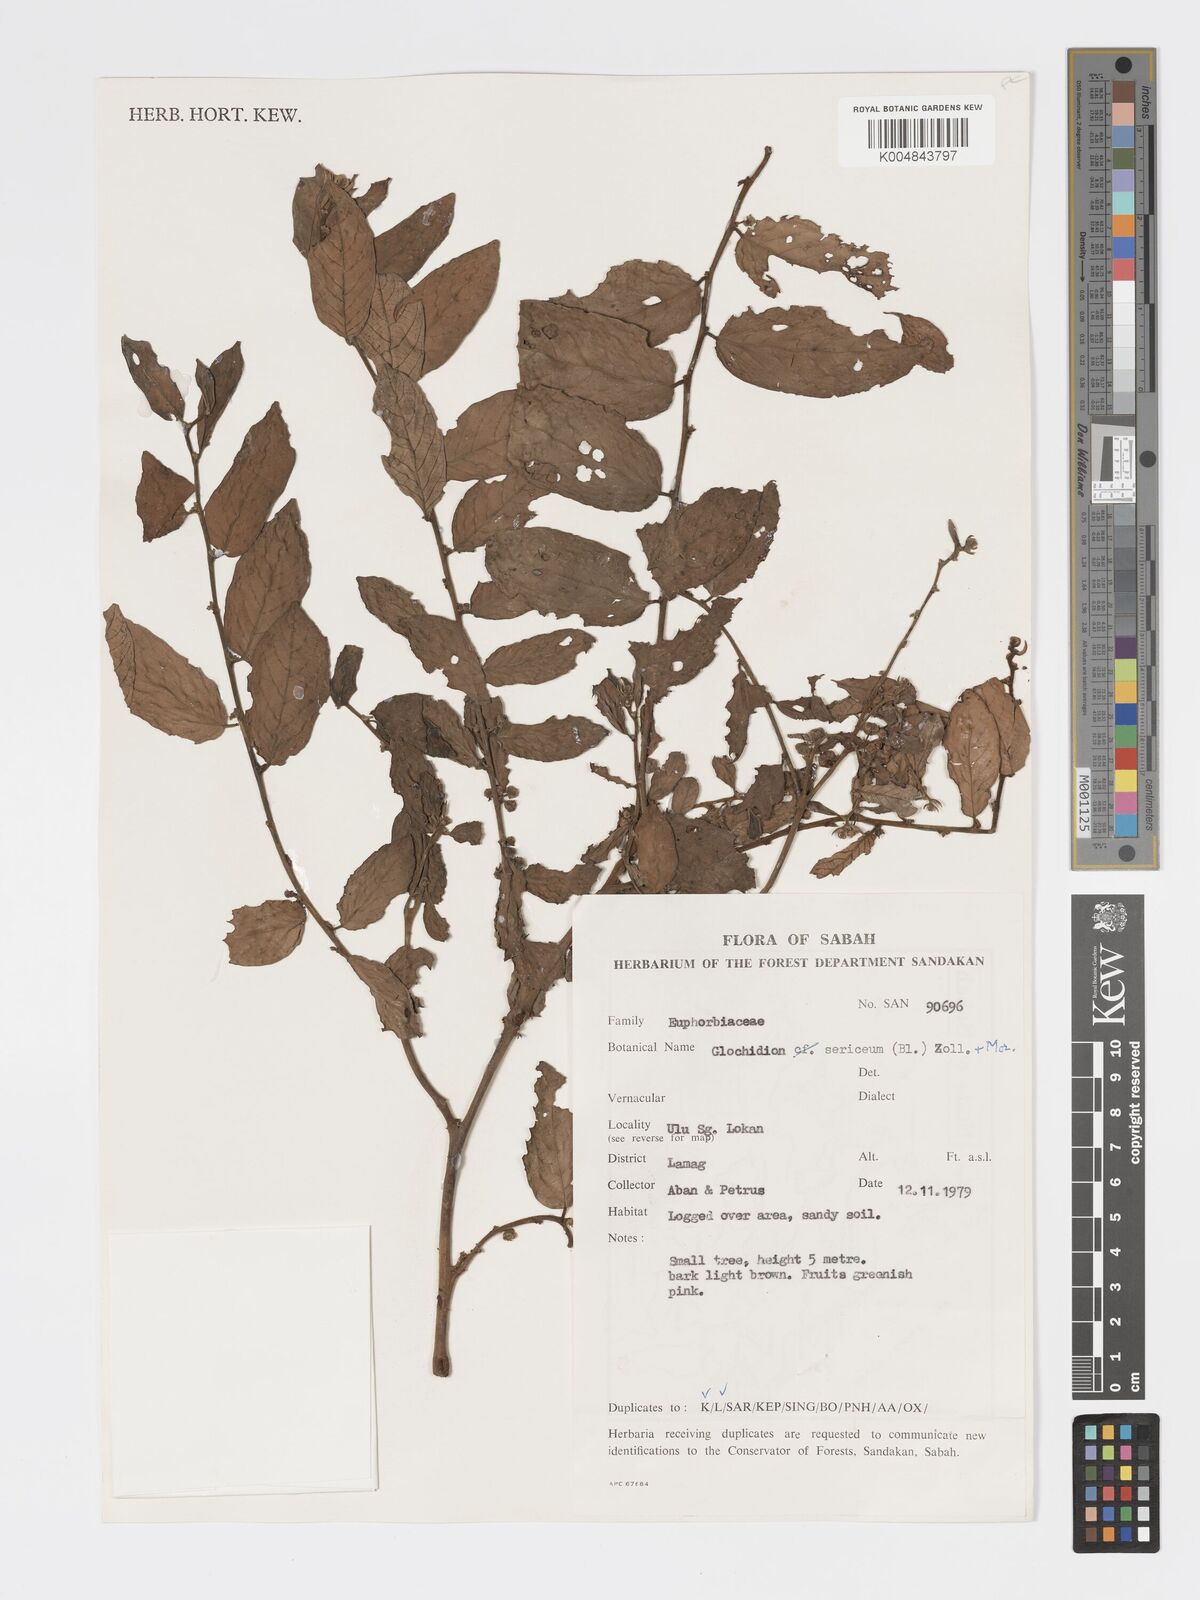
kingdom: Plantae
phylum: Tracheophyta
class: Magnoliopsida
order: Malpighiales
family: Phyllanthaceae
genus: Glochidion
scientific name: Glochidion sericeum
